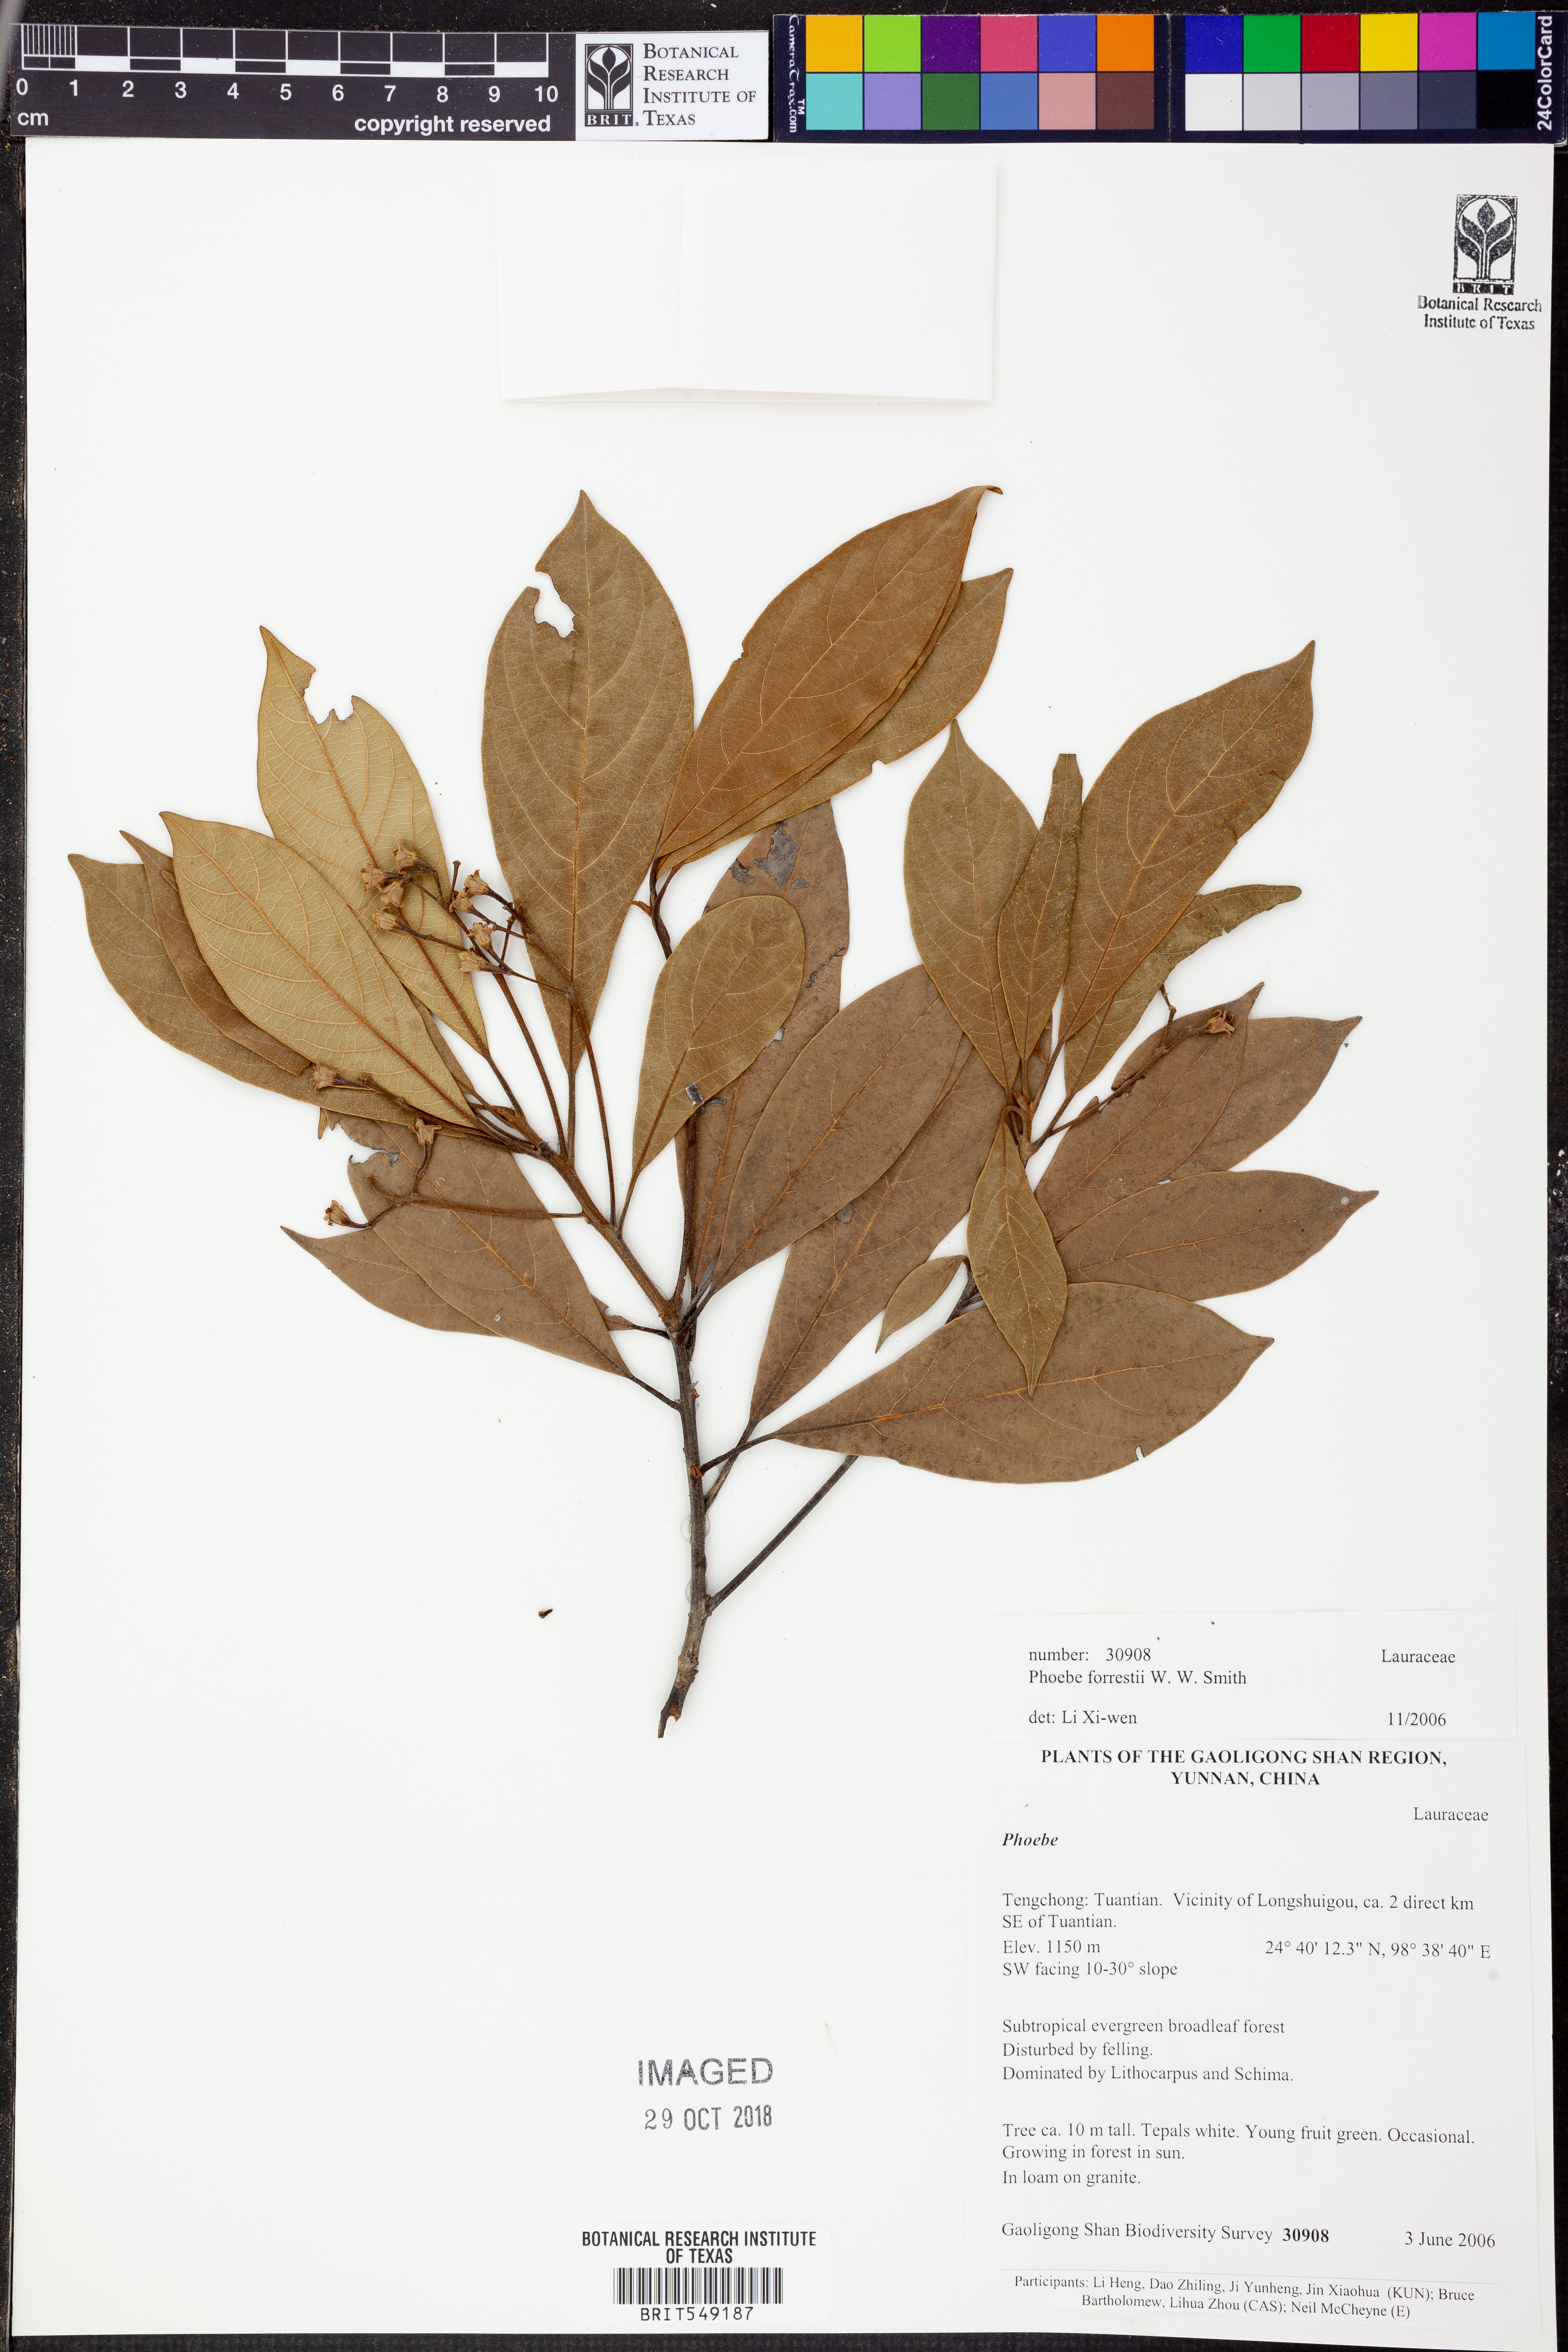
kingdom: Plantae
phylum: Tracheophyta
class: Magnoliopsida
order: Laurales
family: Lauraceae
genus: Machilus
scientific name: Machilus forrestii
